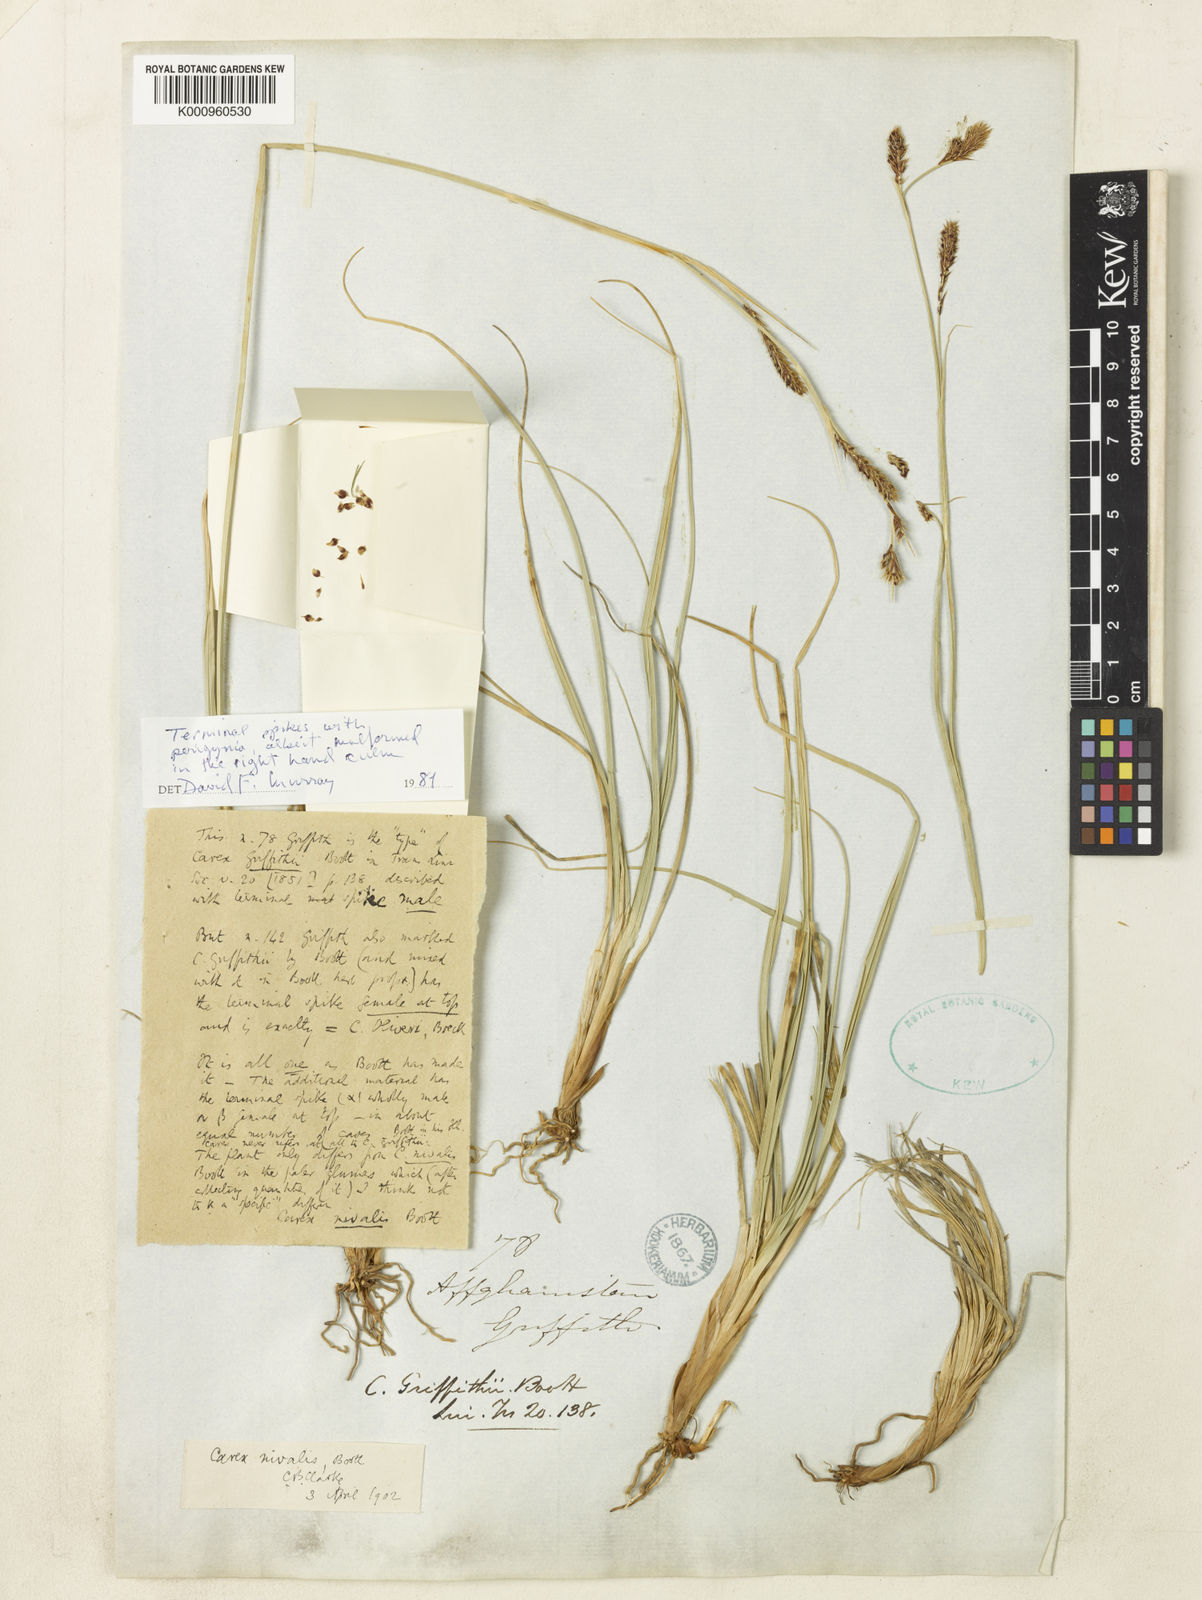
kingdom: Plantae
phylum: Tracheophyta
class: Liliopsida
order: Poales
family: Cyperaceae
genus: Carex
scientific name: Carex nivalis
